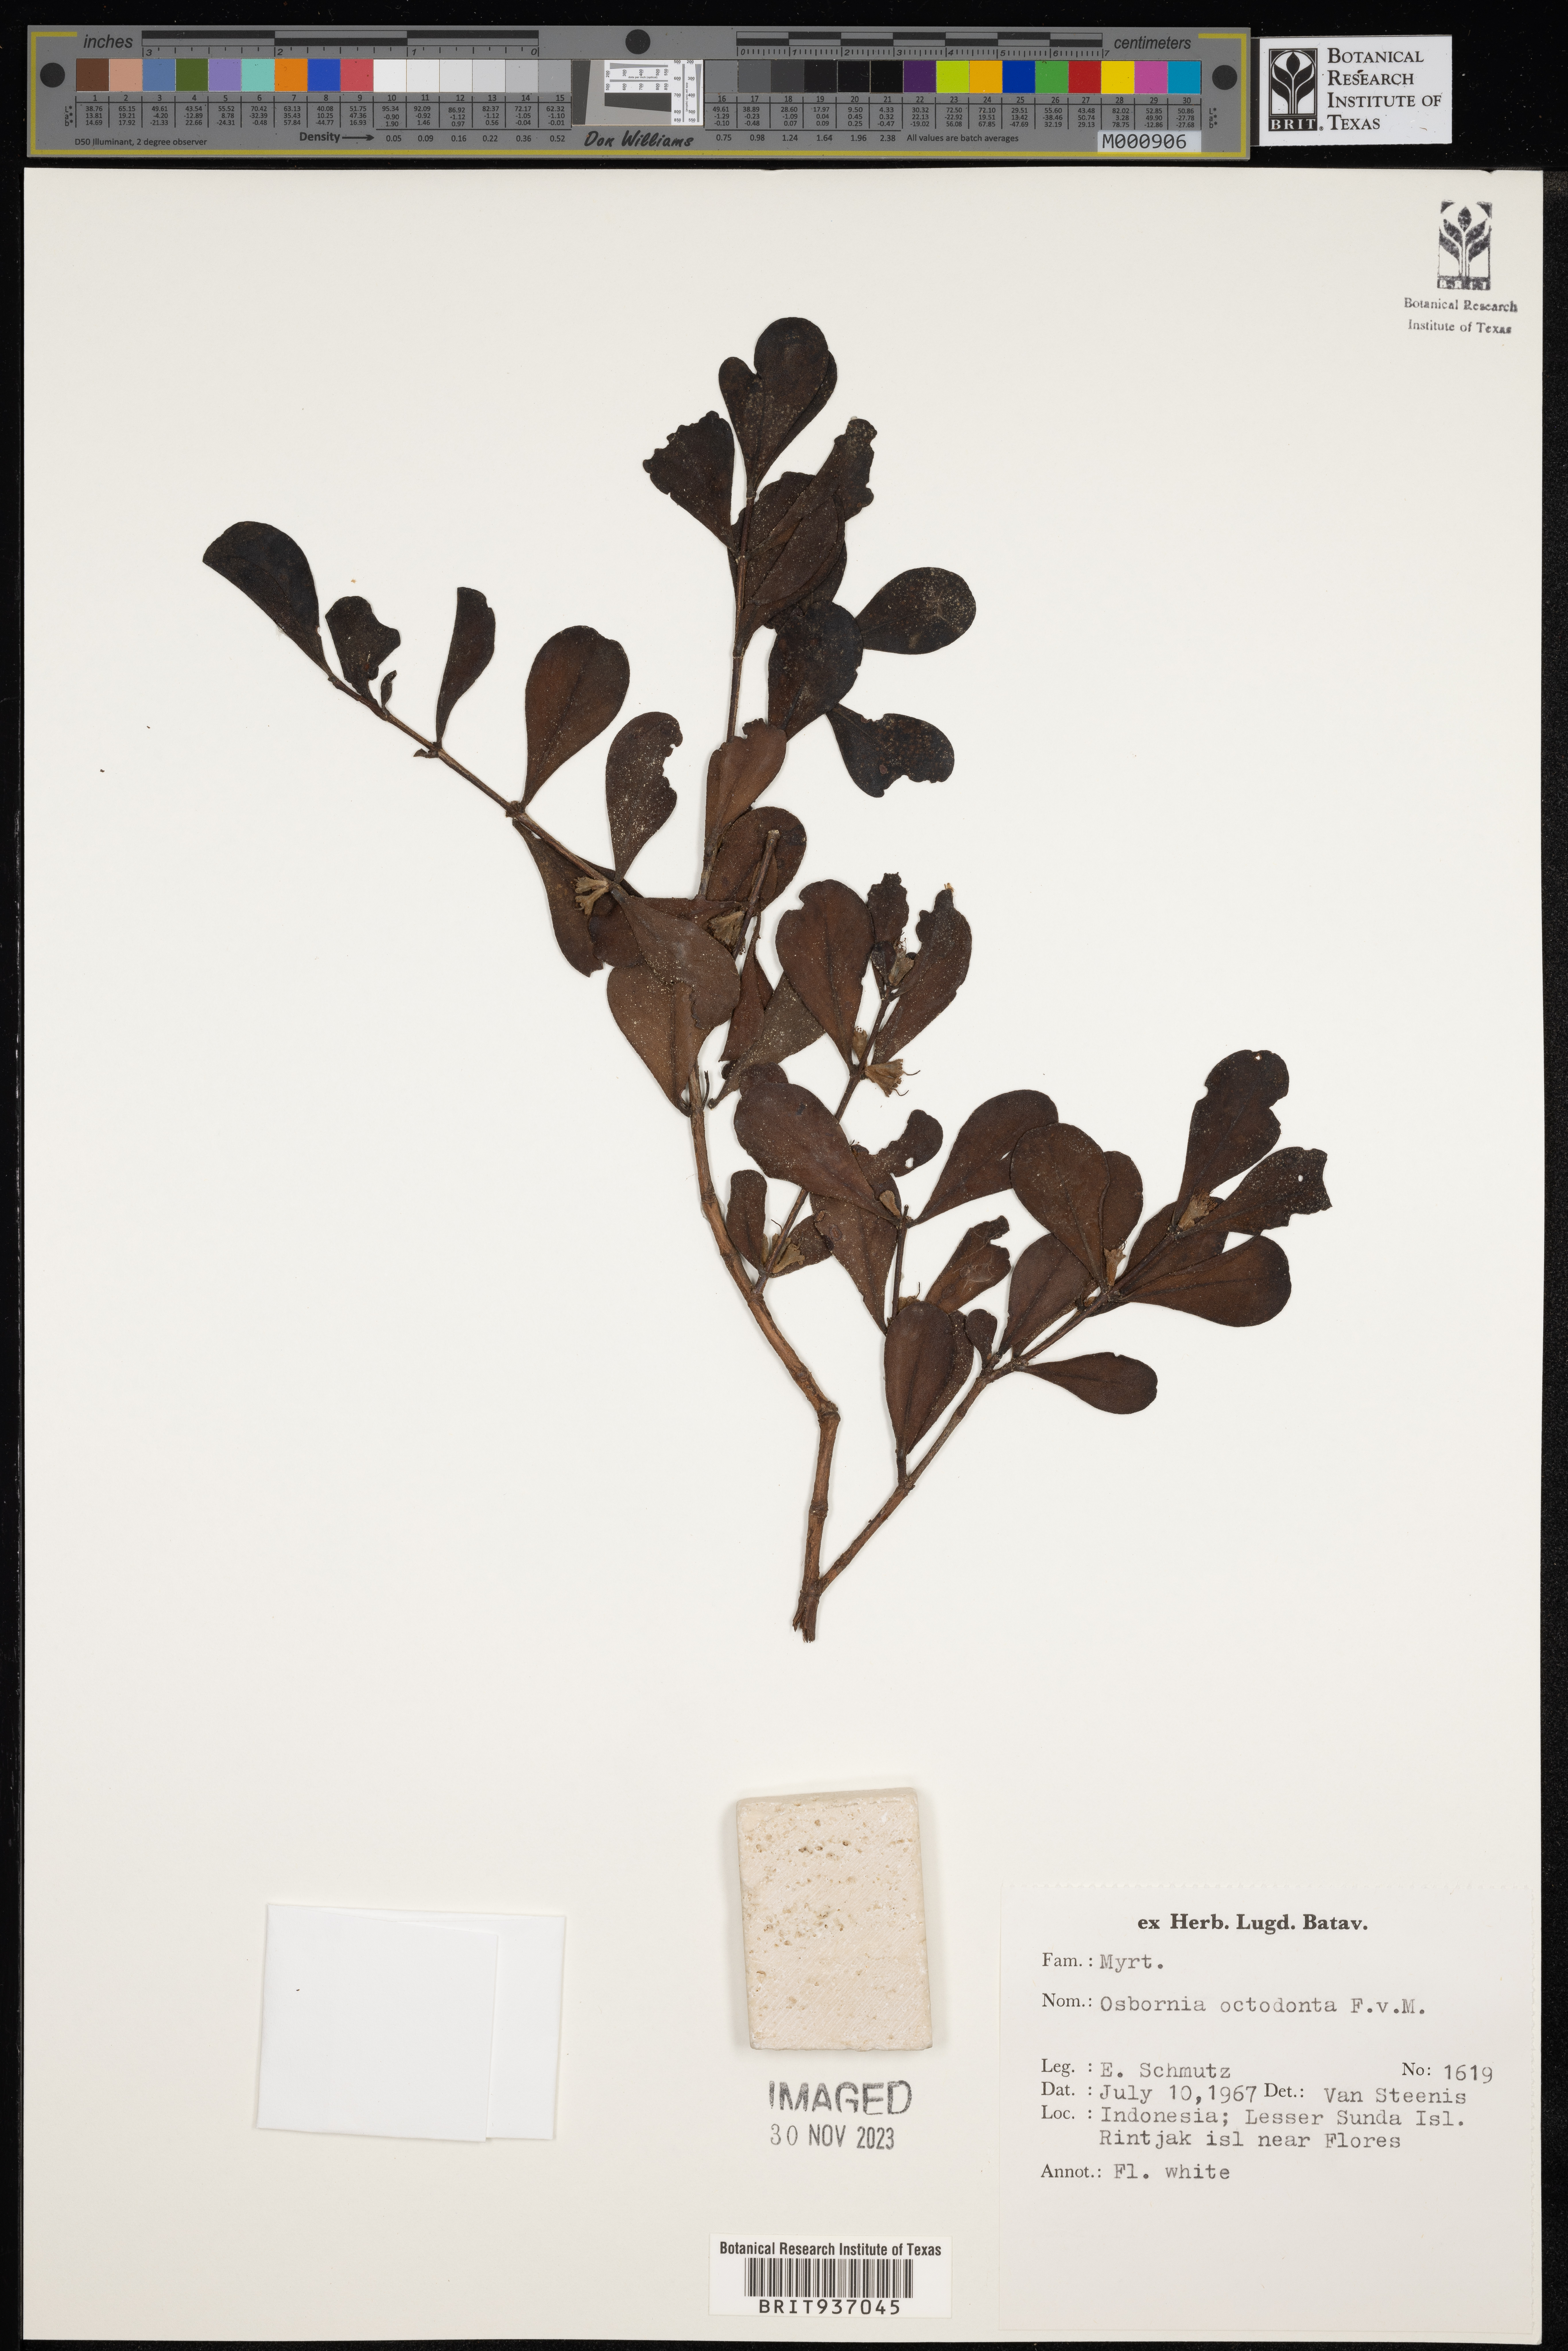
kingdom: Plantae
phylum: Tracheophyta
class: Magnoliopsida
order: Myrtales
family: Myrtaceae
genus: Osbornia
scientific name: Osbornia
